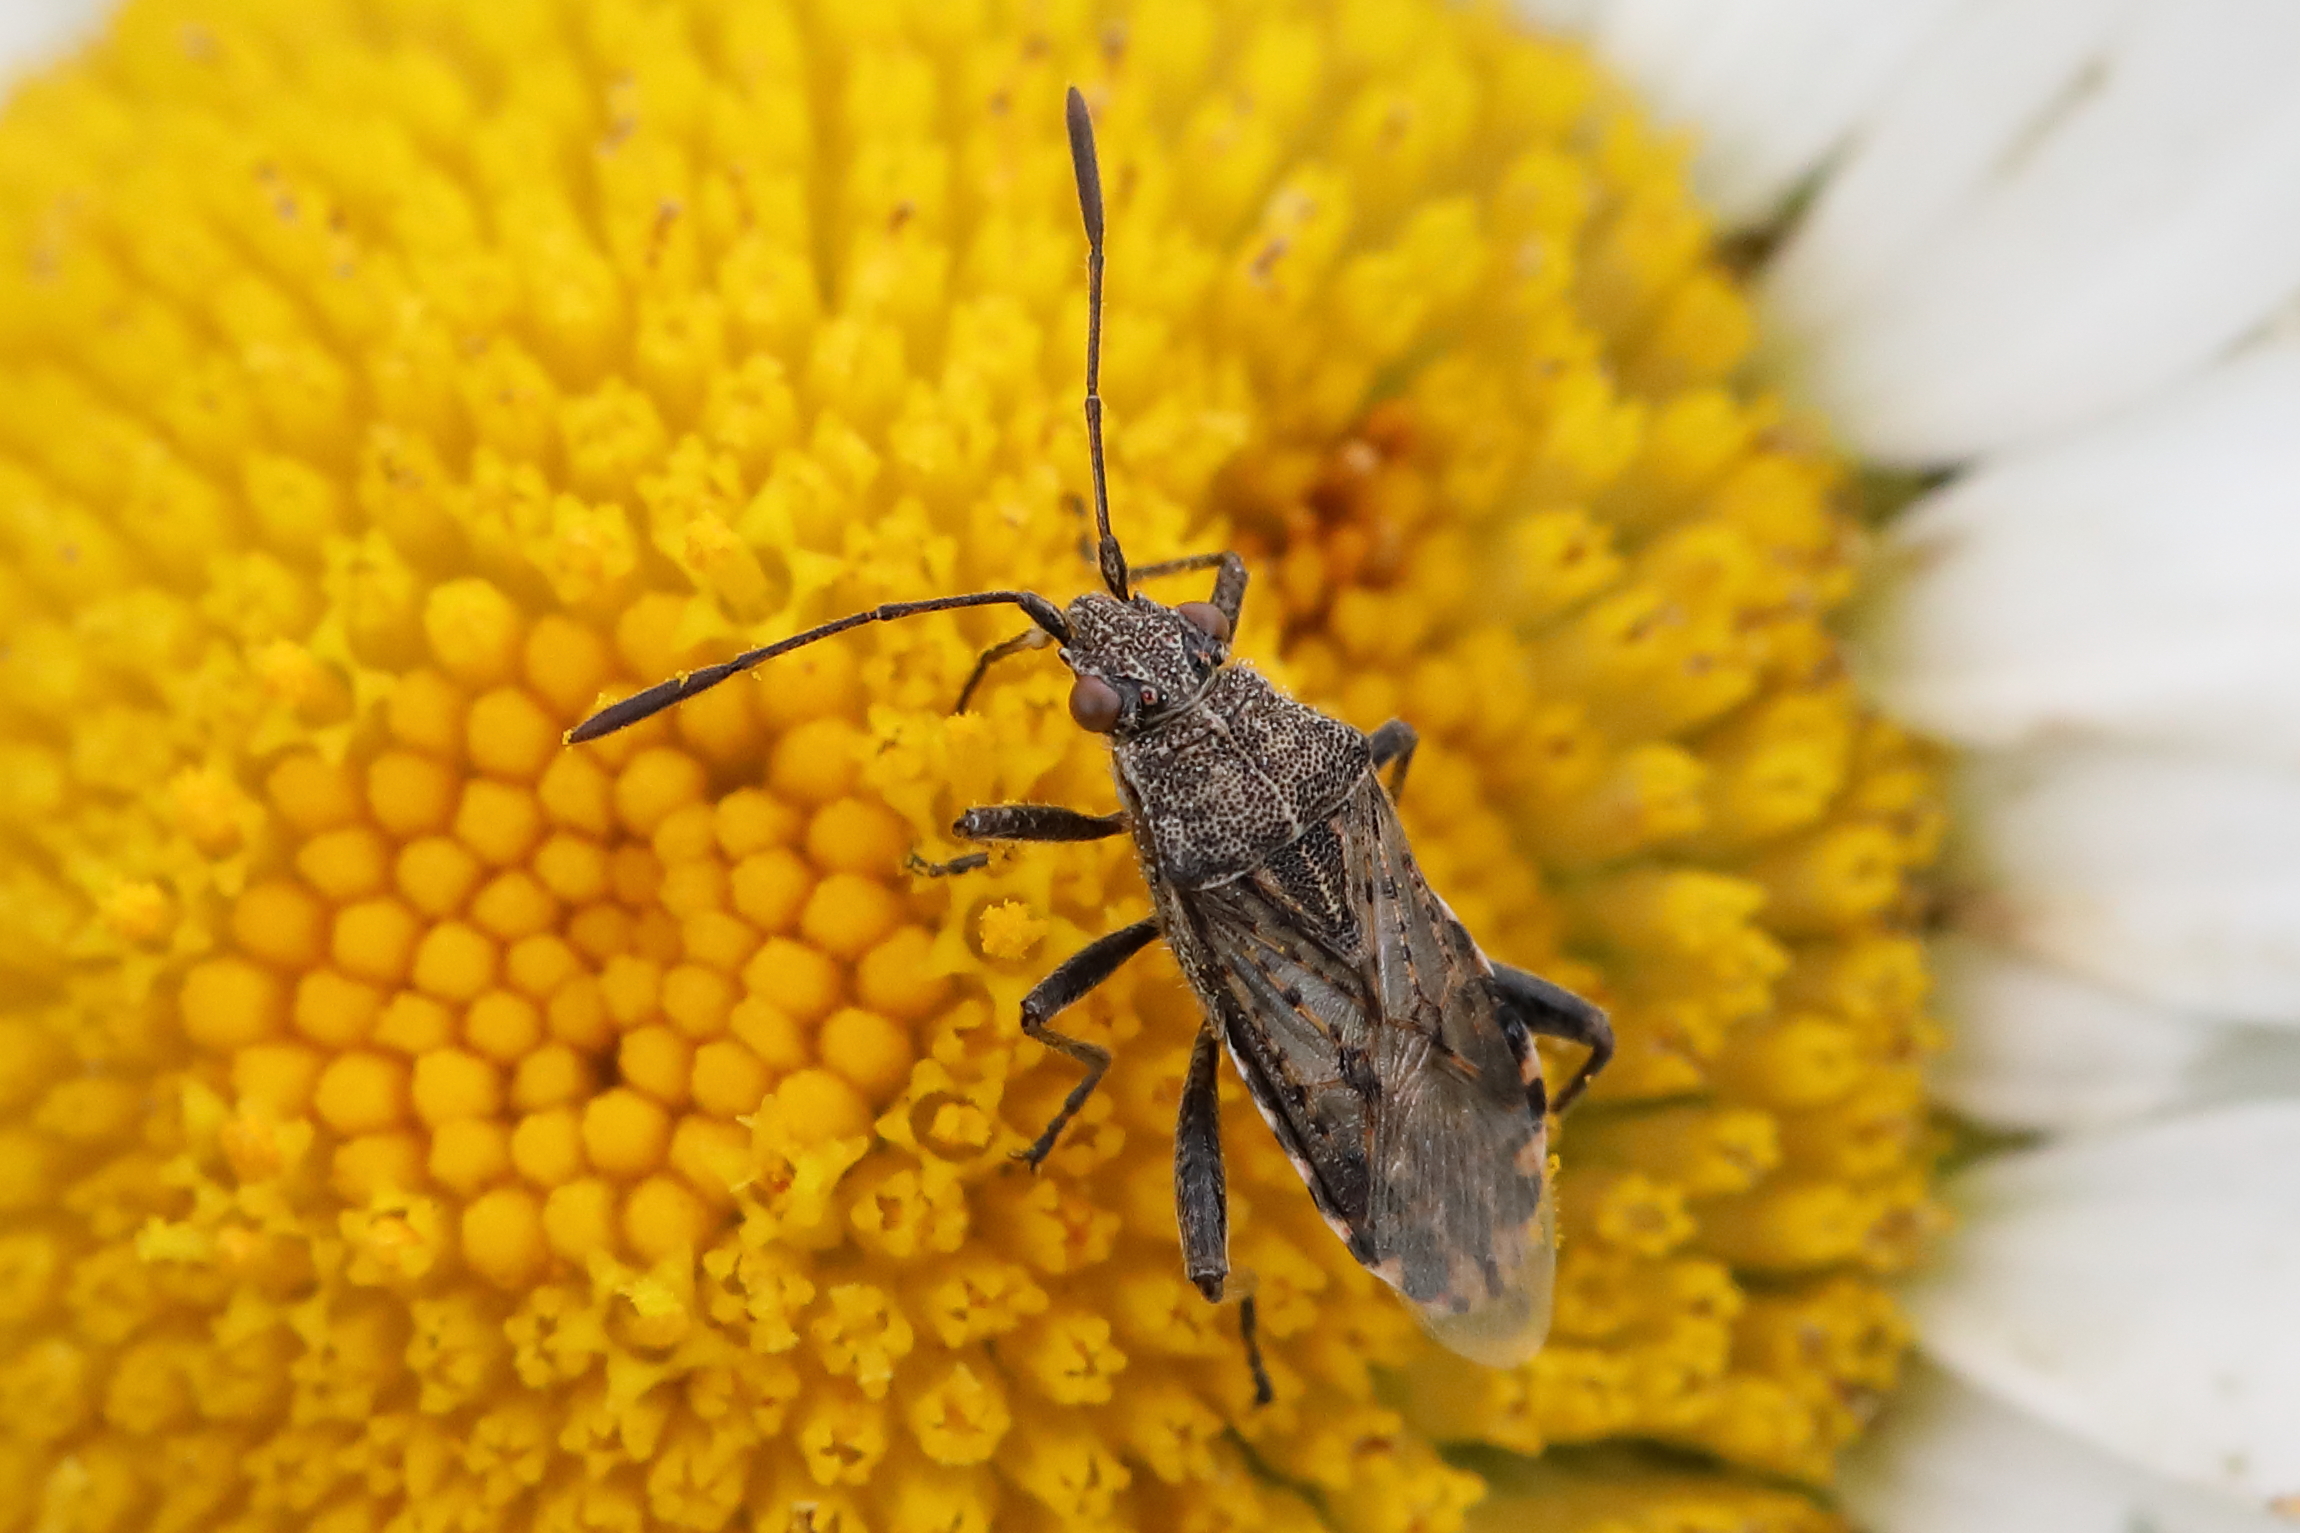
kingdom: Animalia
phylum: Arthropoda
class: Insecta
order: Hemiptera
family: Rhopalidae
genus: Stictopleurus
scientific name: Stictopleurus punctatonervosus
